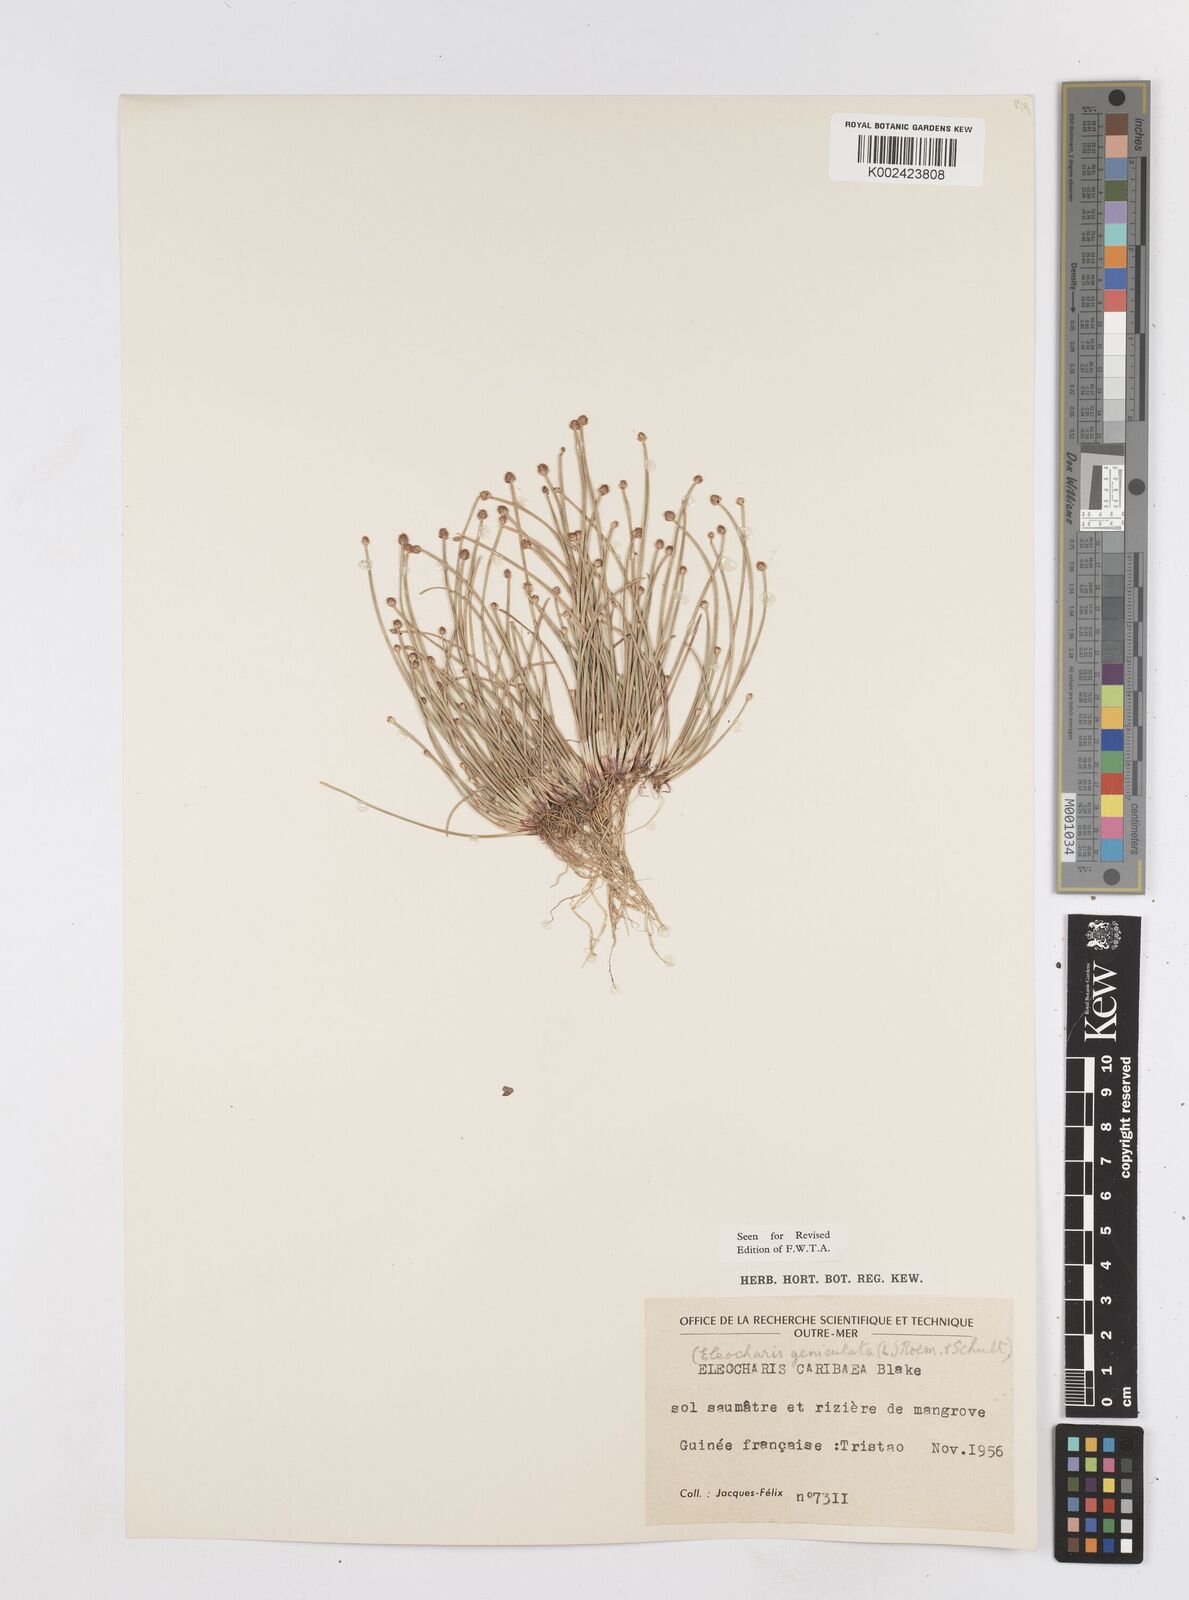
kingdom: Plantae
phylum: Tracheophyta
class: Liliopsida
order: Poales
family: Cyperaceae
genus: Eleocharis
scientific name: Eleocharis geniculata
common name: Canada spikesedge
